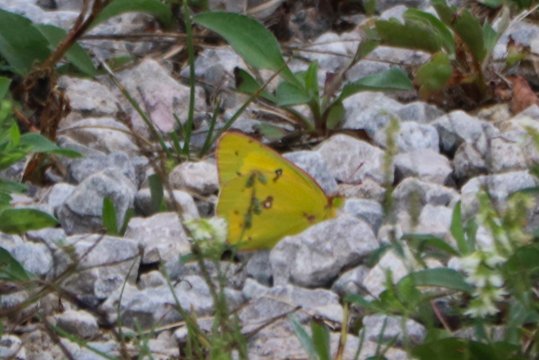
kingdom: Animalia
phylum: Arthropoda
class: Insecta
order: Lepidoptera
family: Pieridae
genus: Colias
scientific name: Colias eurytheme
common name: Orange Sulphur
